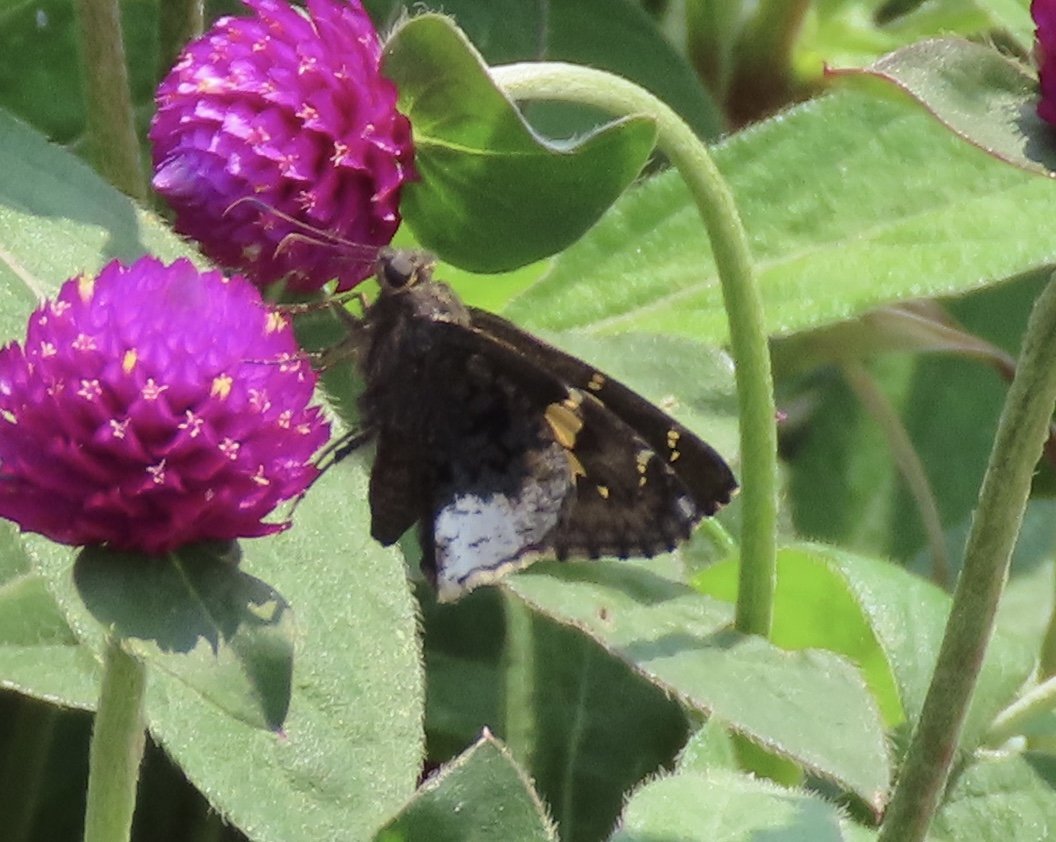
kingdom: Animalia
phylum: Arthropoda
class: Insecta
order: Lepidoptera
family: Hesperiidae
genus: Achalarus
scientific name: Achalarus lyciades
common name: Hoary Edge
